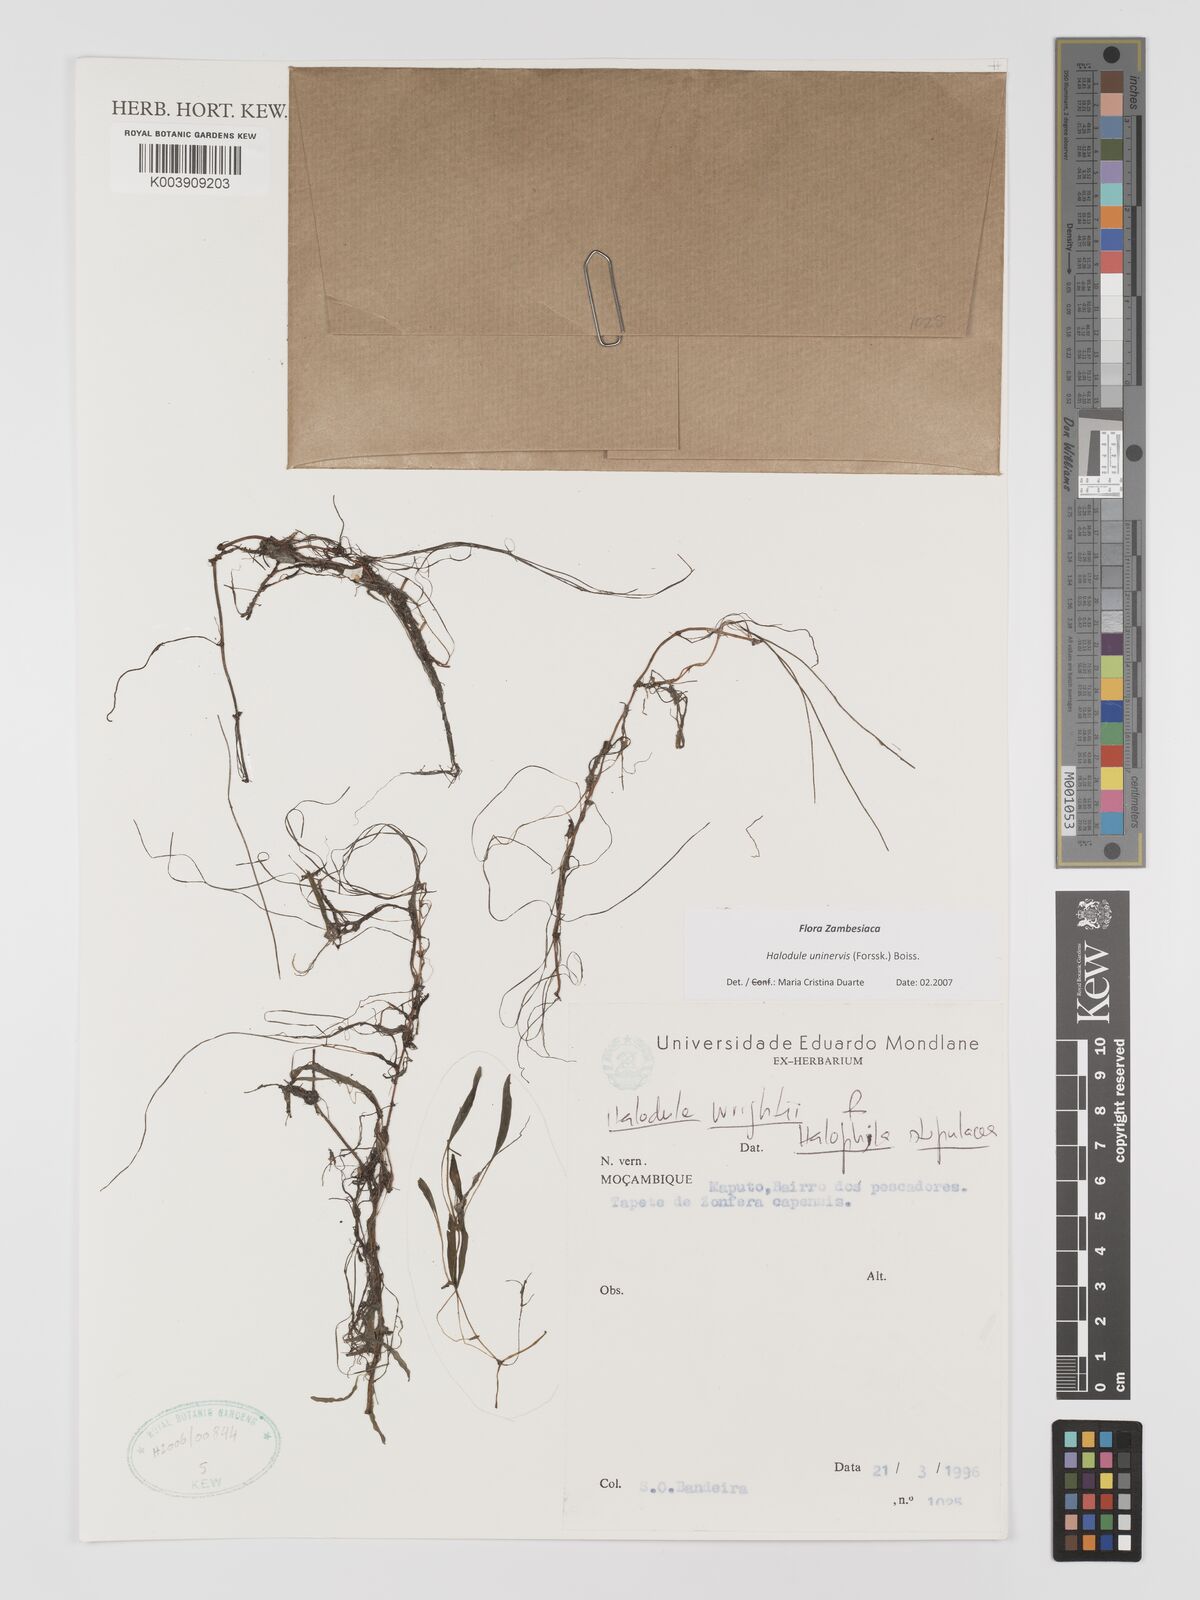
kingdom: Plantae
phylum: Tracheophyta
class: Liliopsida
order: Alismatales
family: Cymodoceaceae
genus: Halodule
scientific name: Halodule uninervis
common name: Narrowleaf seagrass
